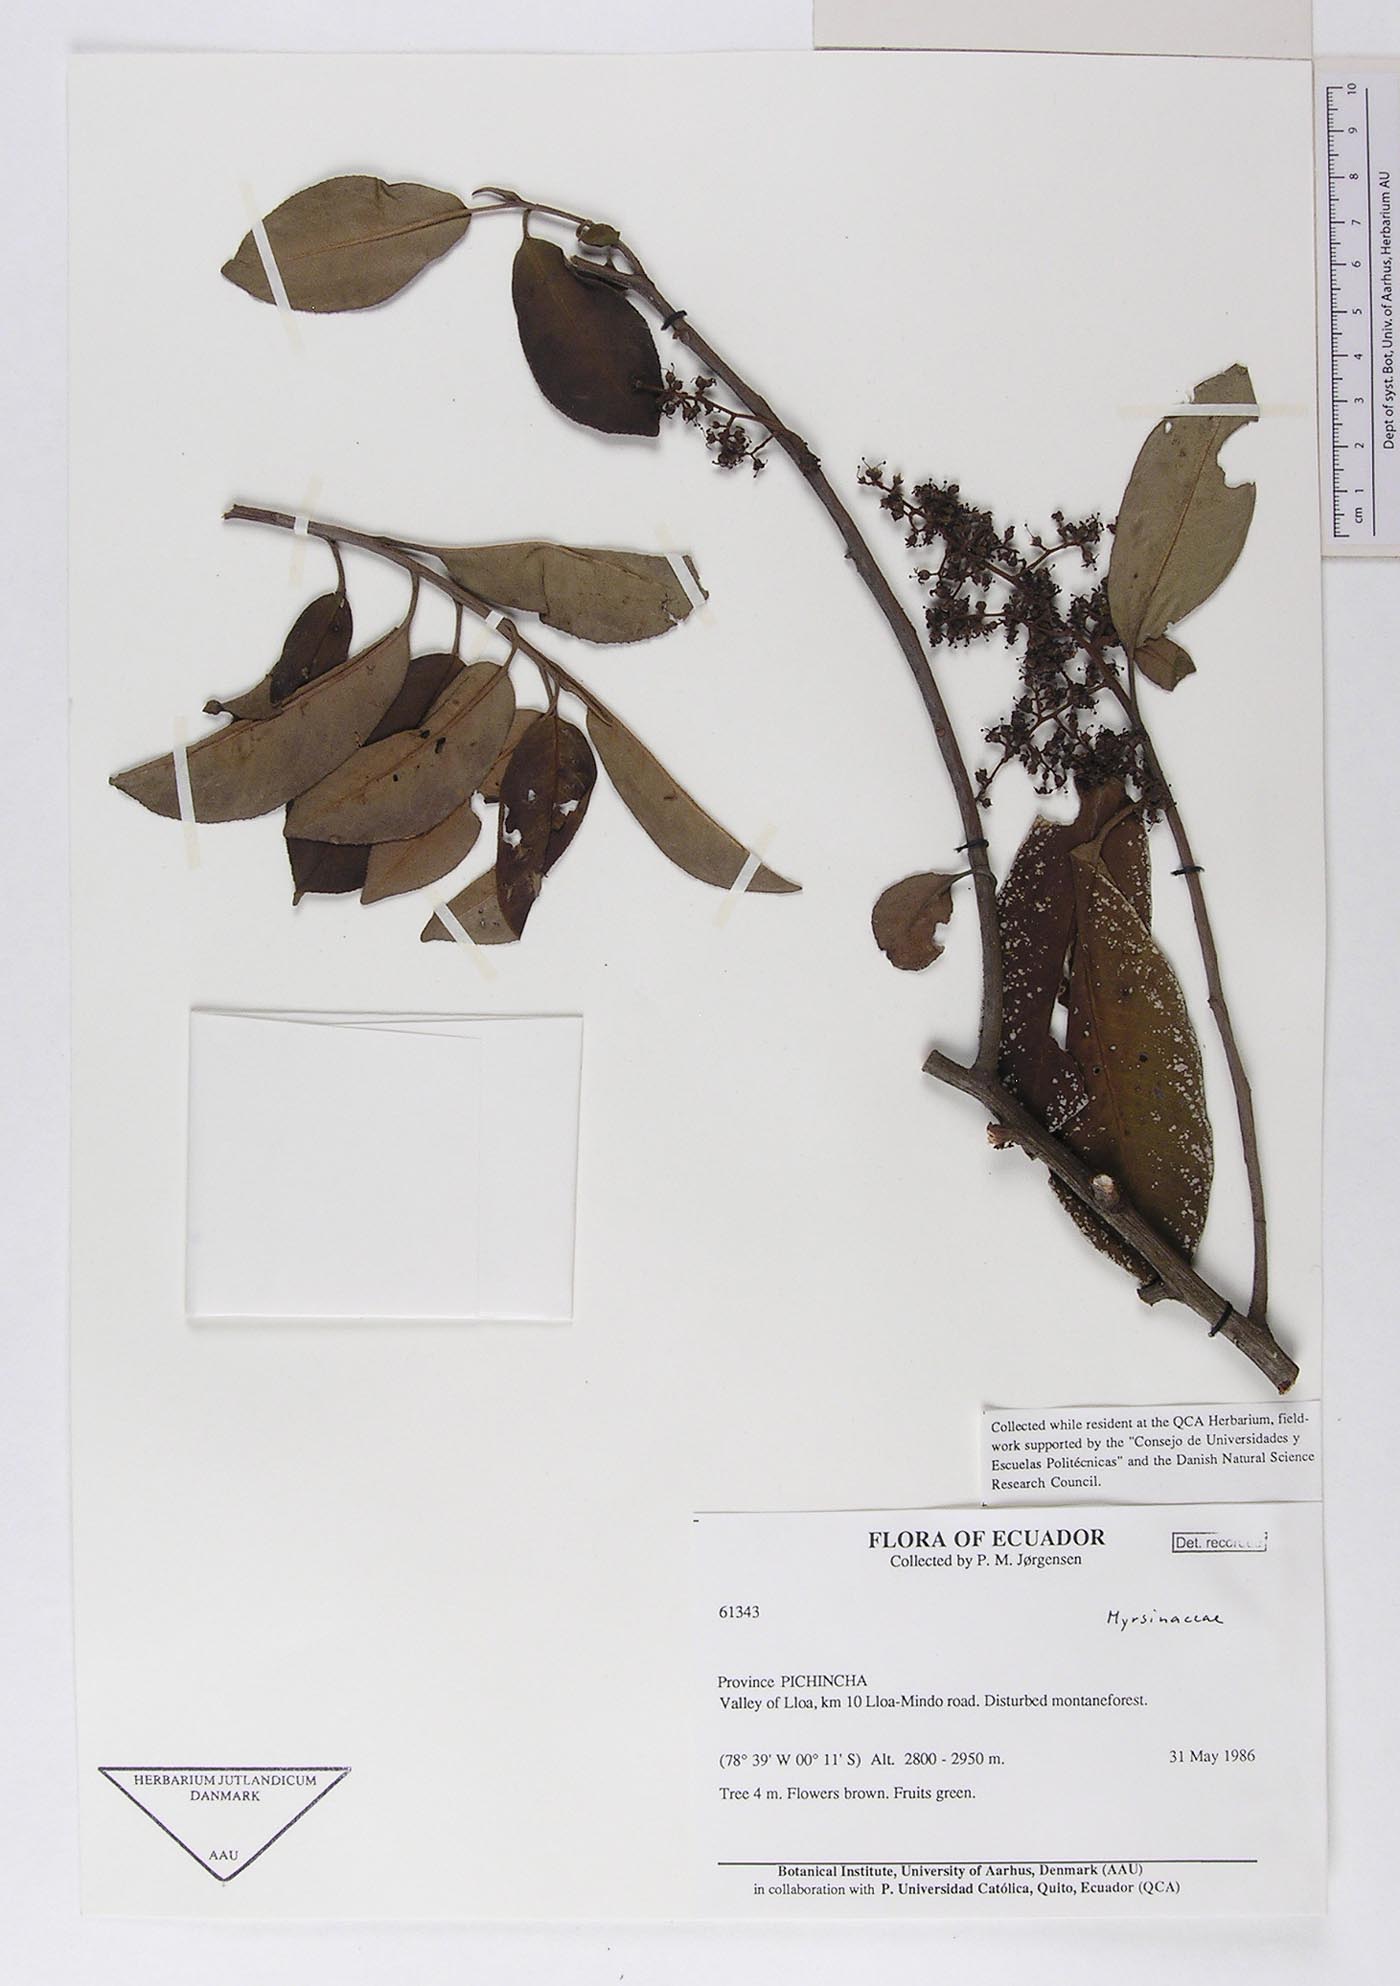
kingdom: Plantae
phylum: Tracheophyta
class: Magnoliopsida
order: Ericales
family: Primulaceae
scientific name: Primulaceae
